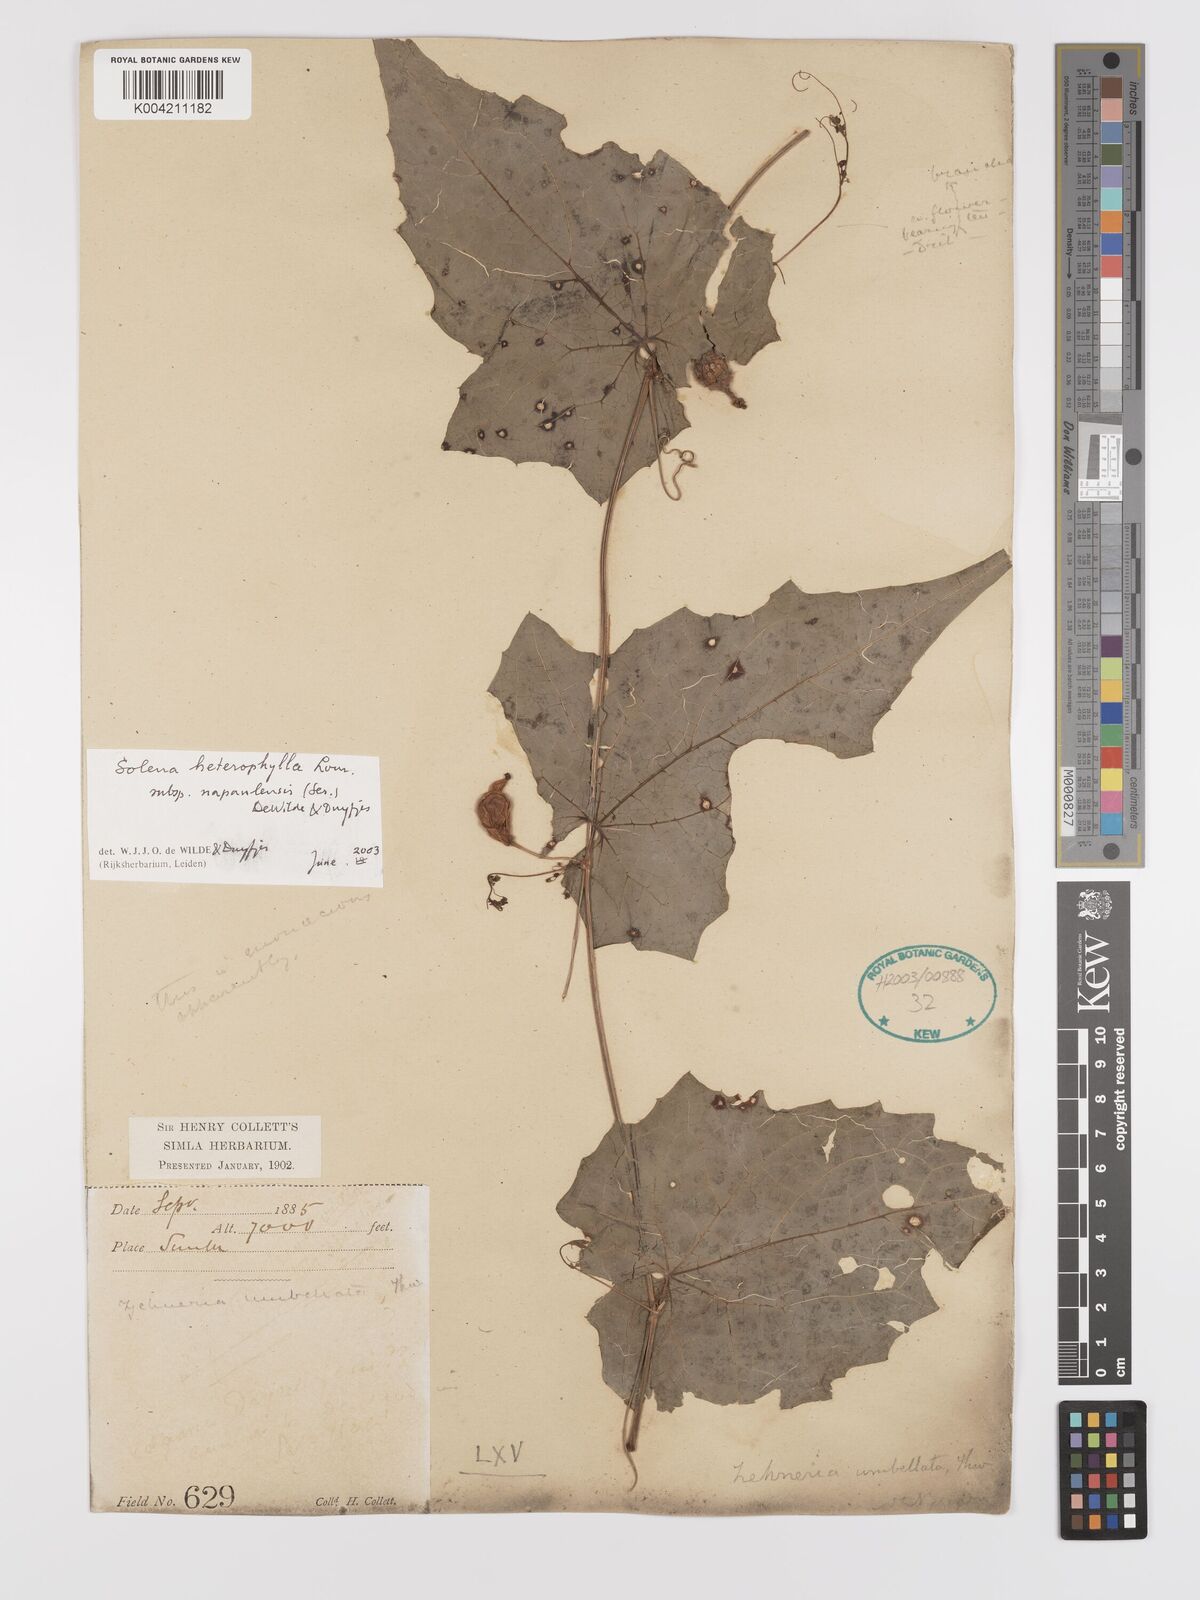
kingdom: Plantae
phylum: Tracheophyta
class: Magnoliopsida
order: Cucurbitales
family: Cucurbitaceae
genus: Solena
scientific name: Solena heterophylla
